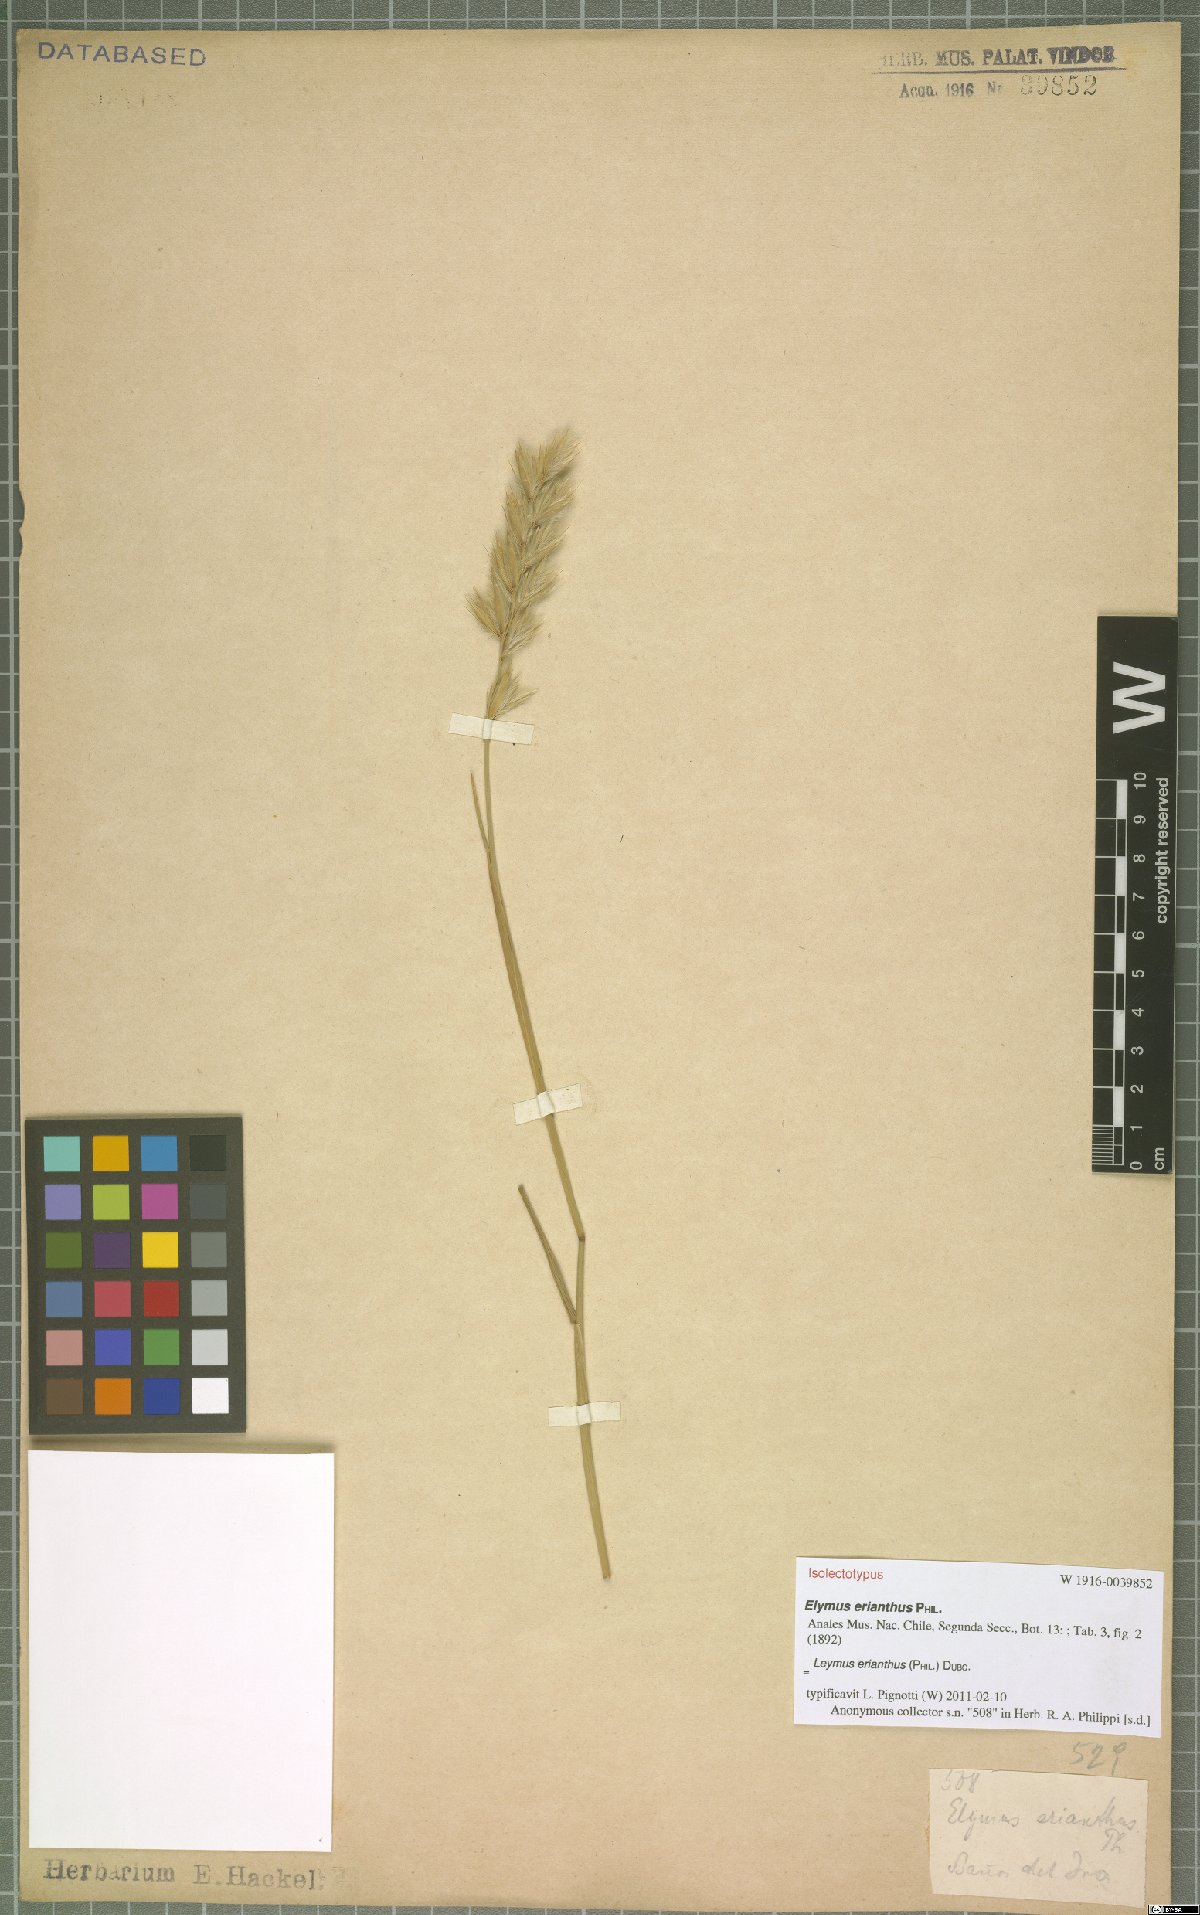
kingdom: Plantae
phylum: Tracheophyta
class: Liliopsida
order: Poales
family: Poaceae
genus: Leymus
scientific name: Leymus erianthus
